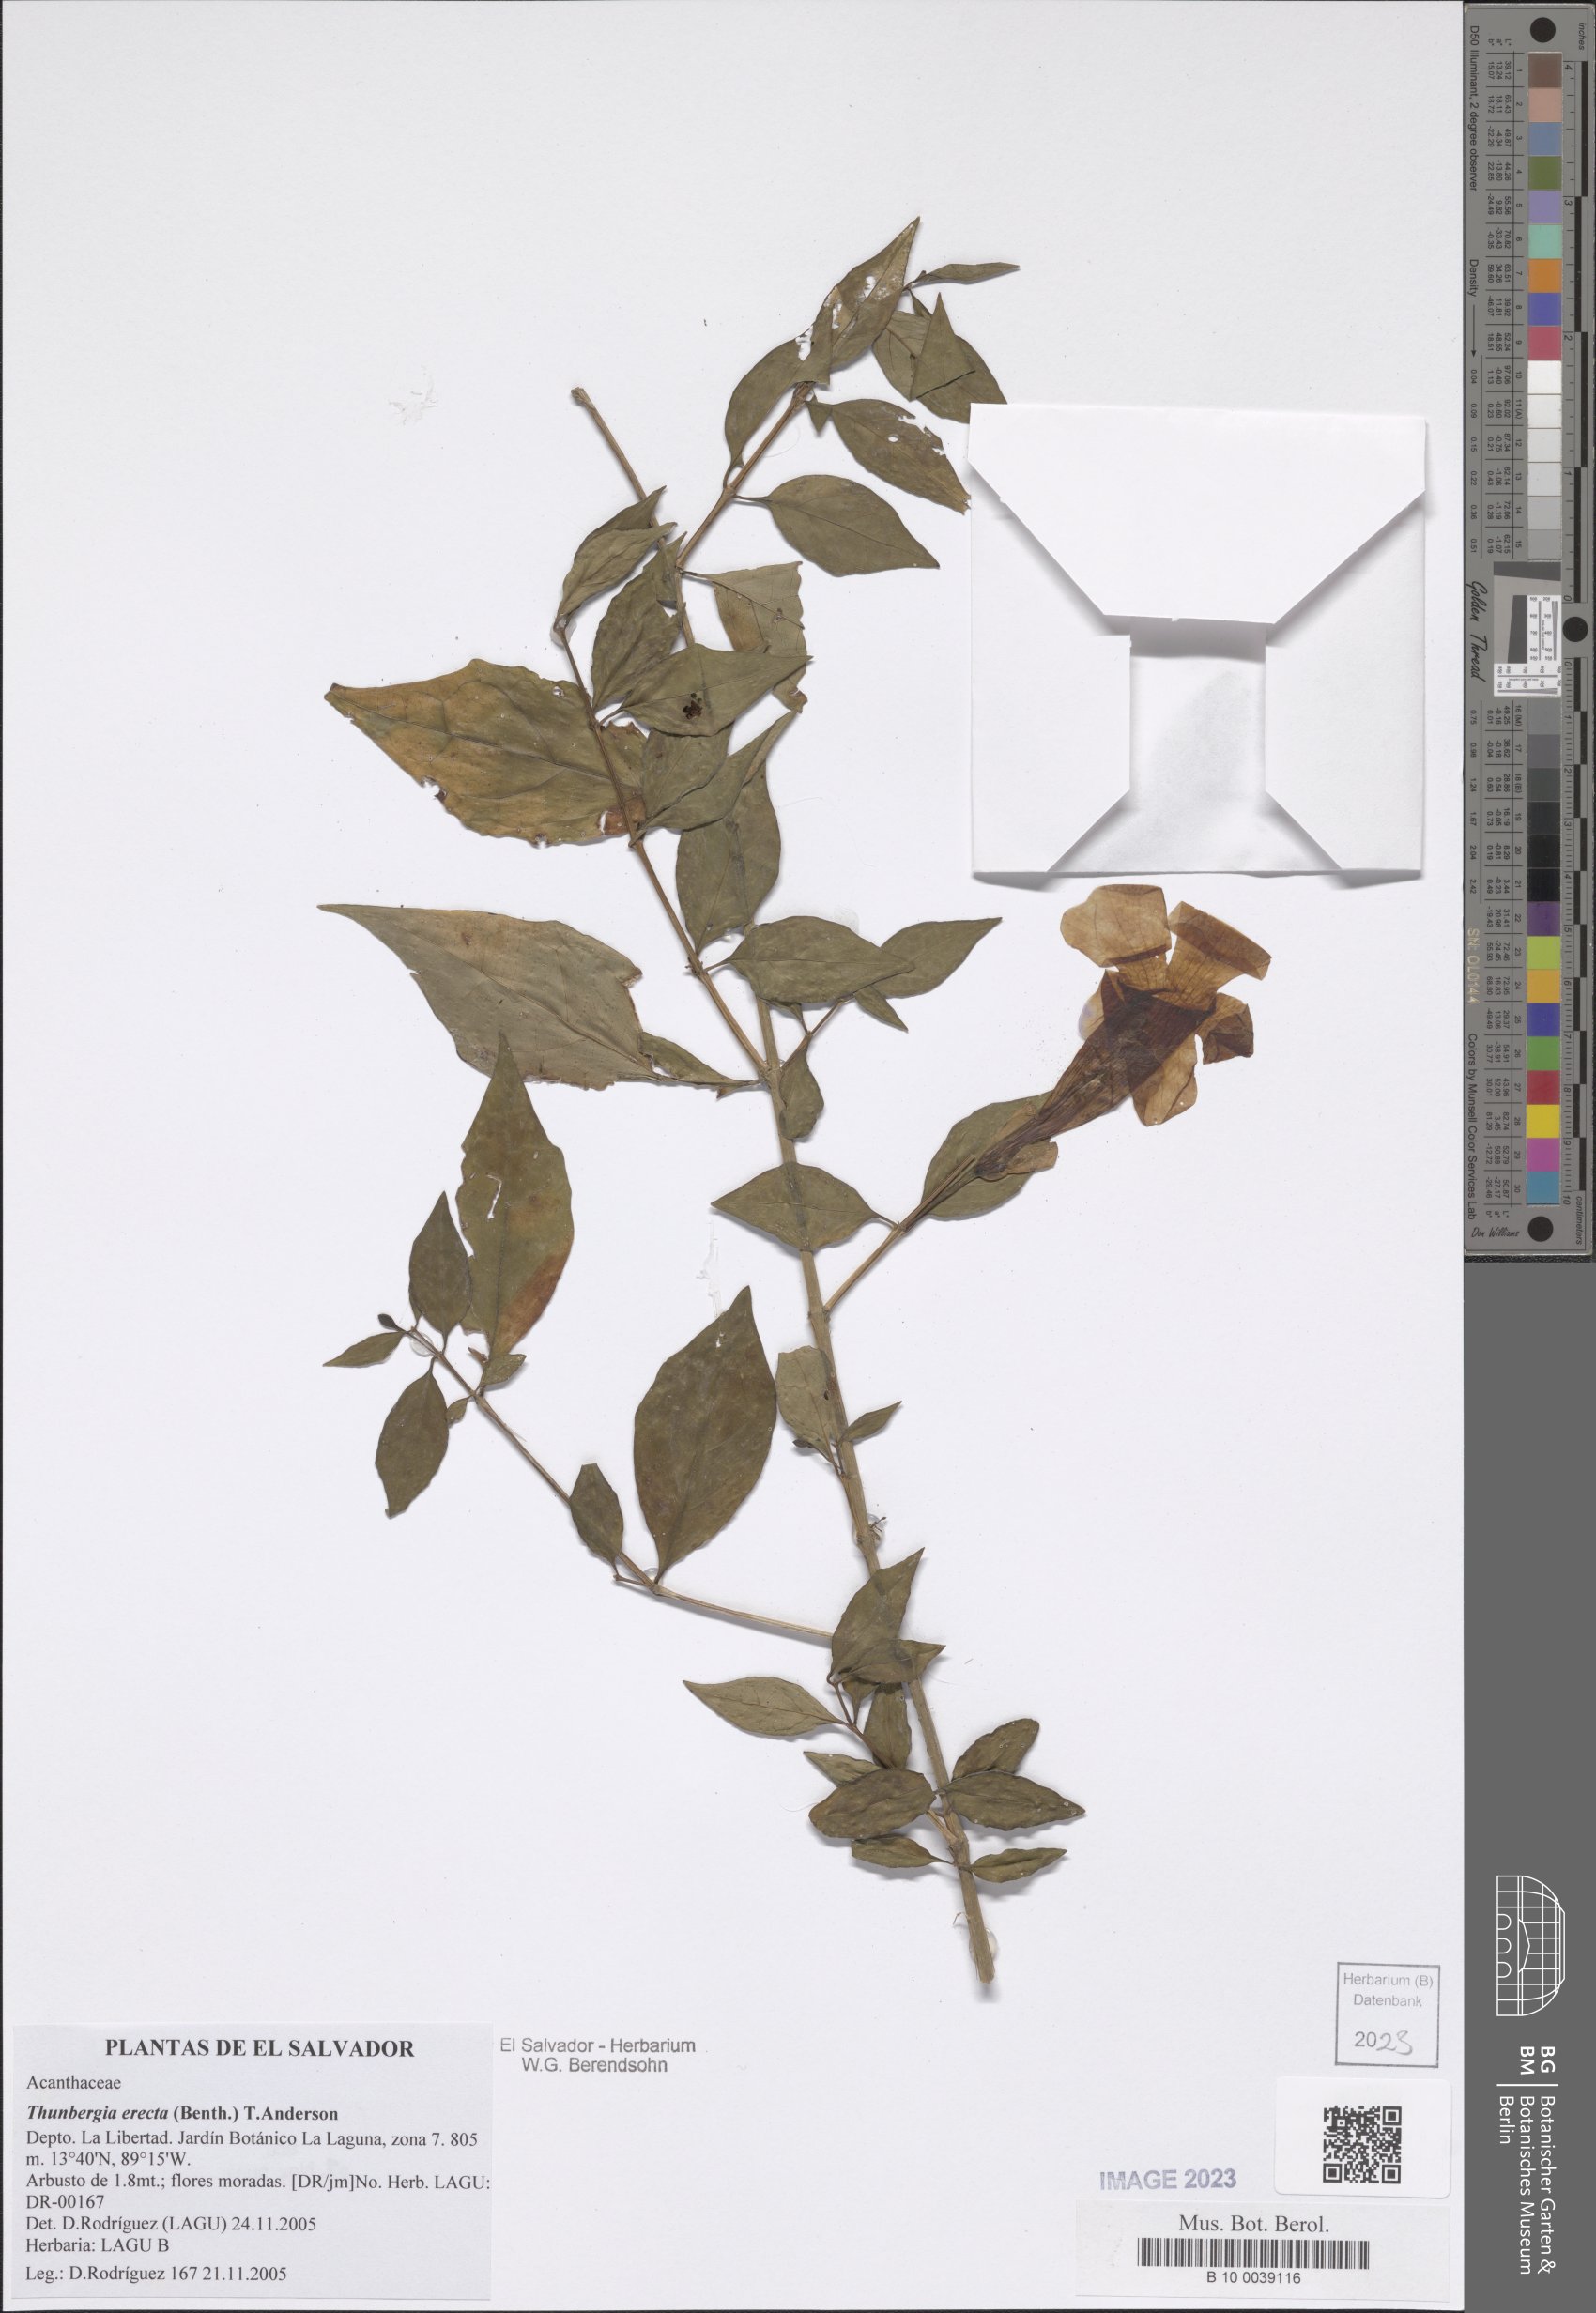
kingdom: Plantae
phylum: Tracheophyta
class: Magnoliopsida
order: Lamiales
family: Acanthaceae
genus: Thunbergia
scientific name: Thunbergia erecta
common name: Bush clockvine
